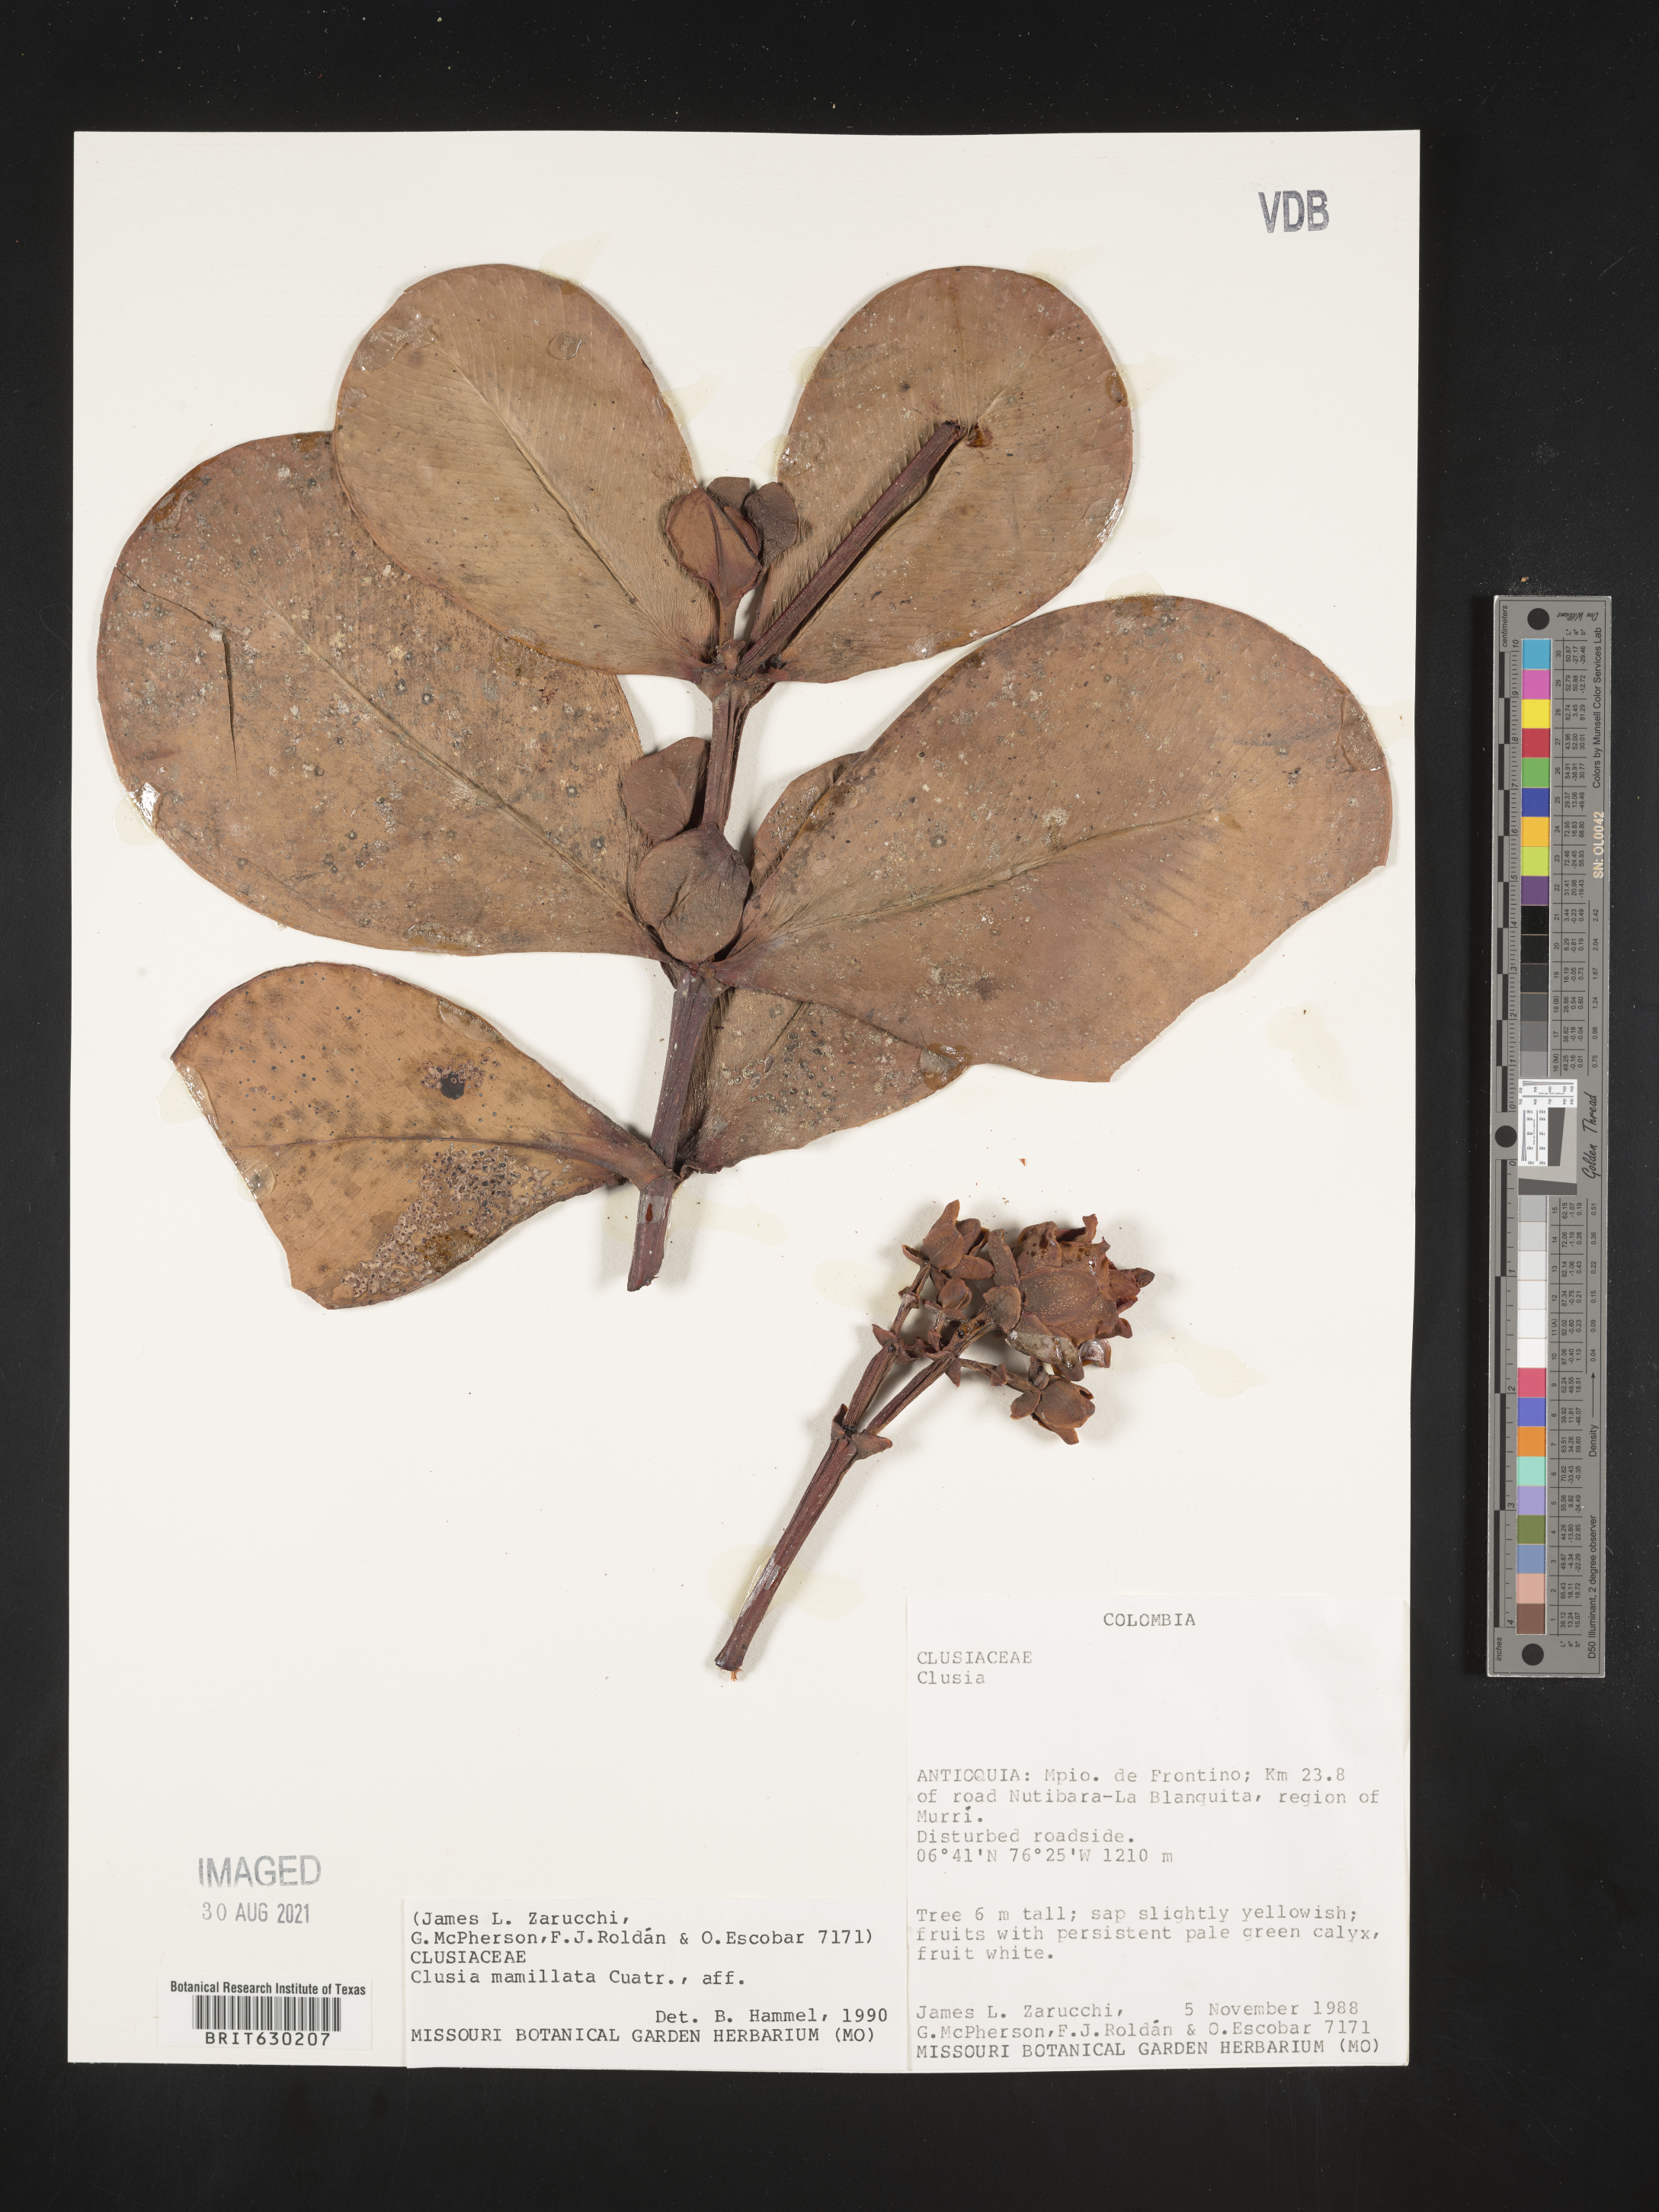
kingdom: Plantae
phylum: Tracheophyta
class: Magnoliopsida
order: Malpighiales
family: Clusiaceae
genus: Clusia
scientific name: Clusia mamillata
